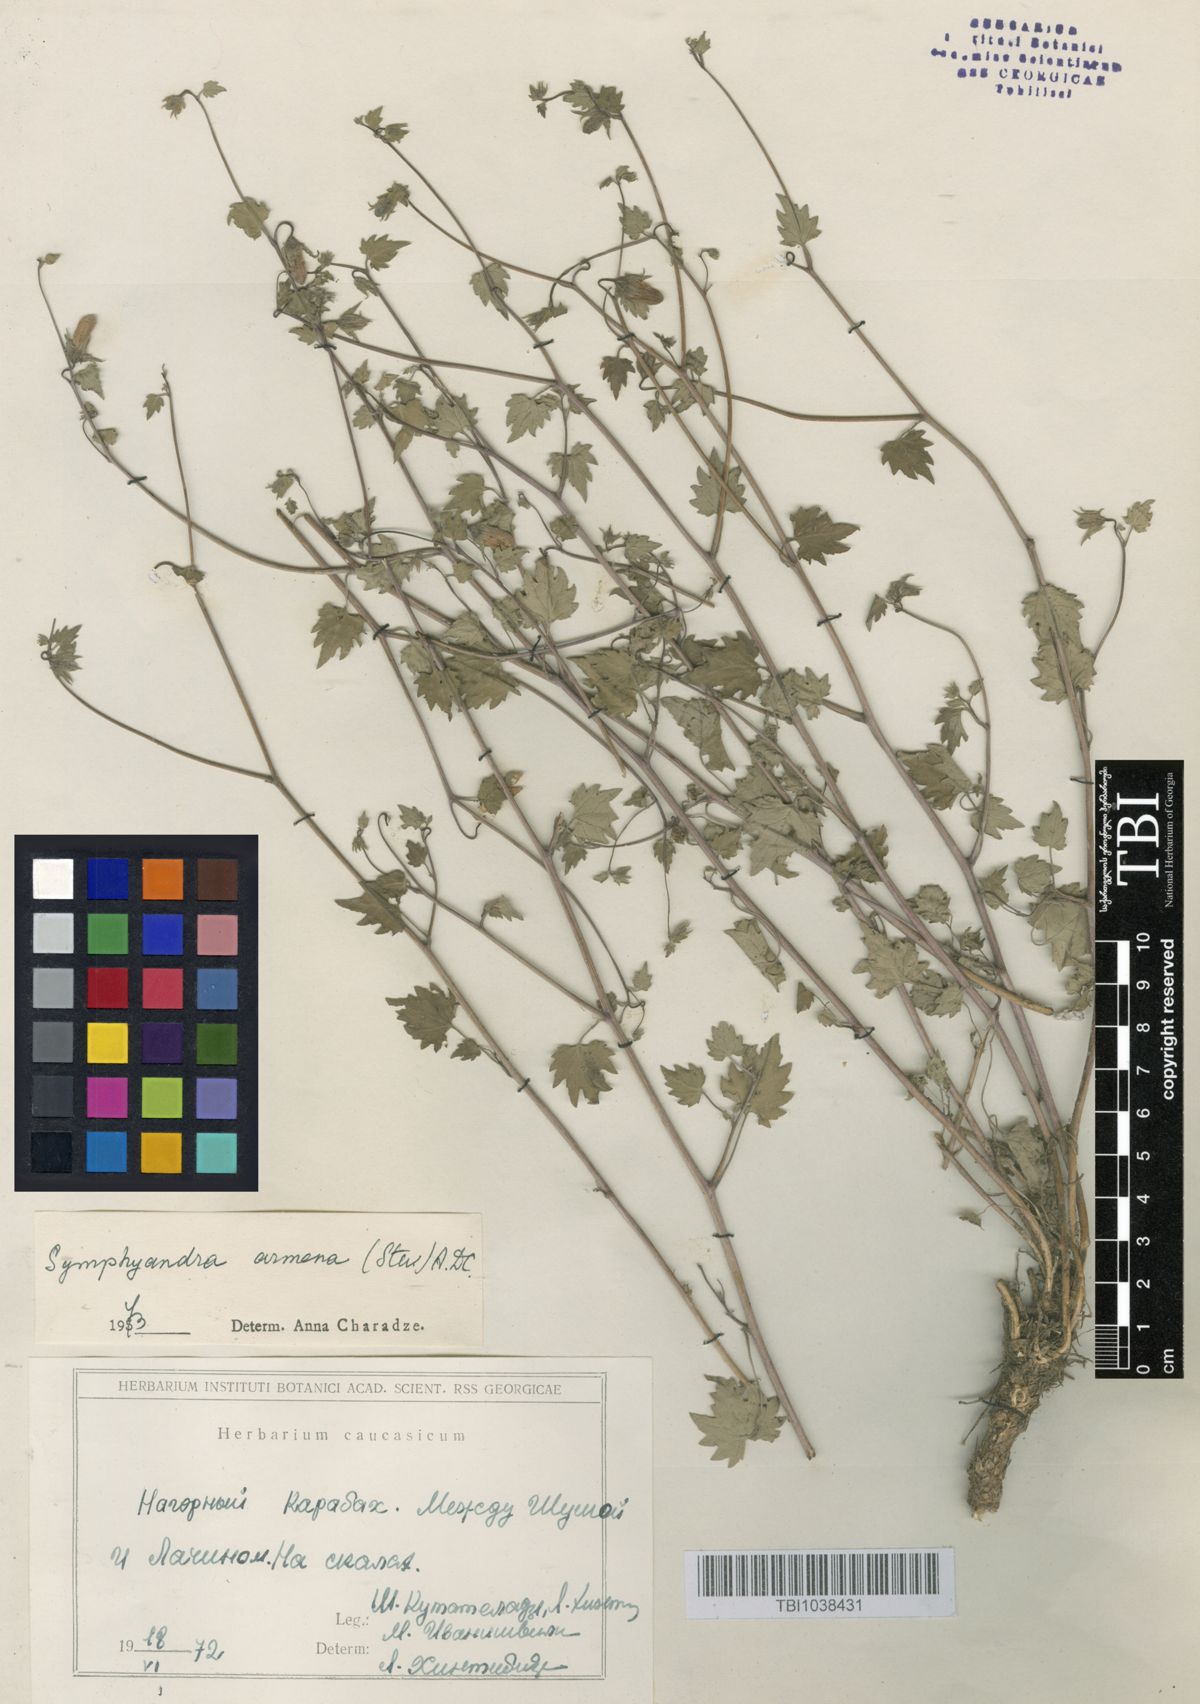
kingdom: Plantae
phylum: Tracheophyta
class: Magnoliopsida
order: Asterales
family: Campanulaceae
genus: Campanula
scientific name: Campanula armena
